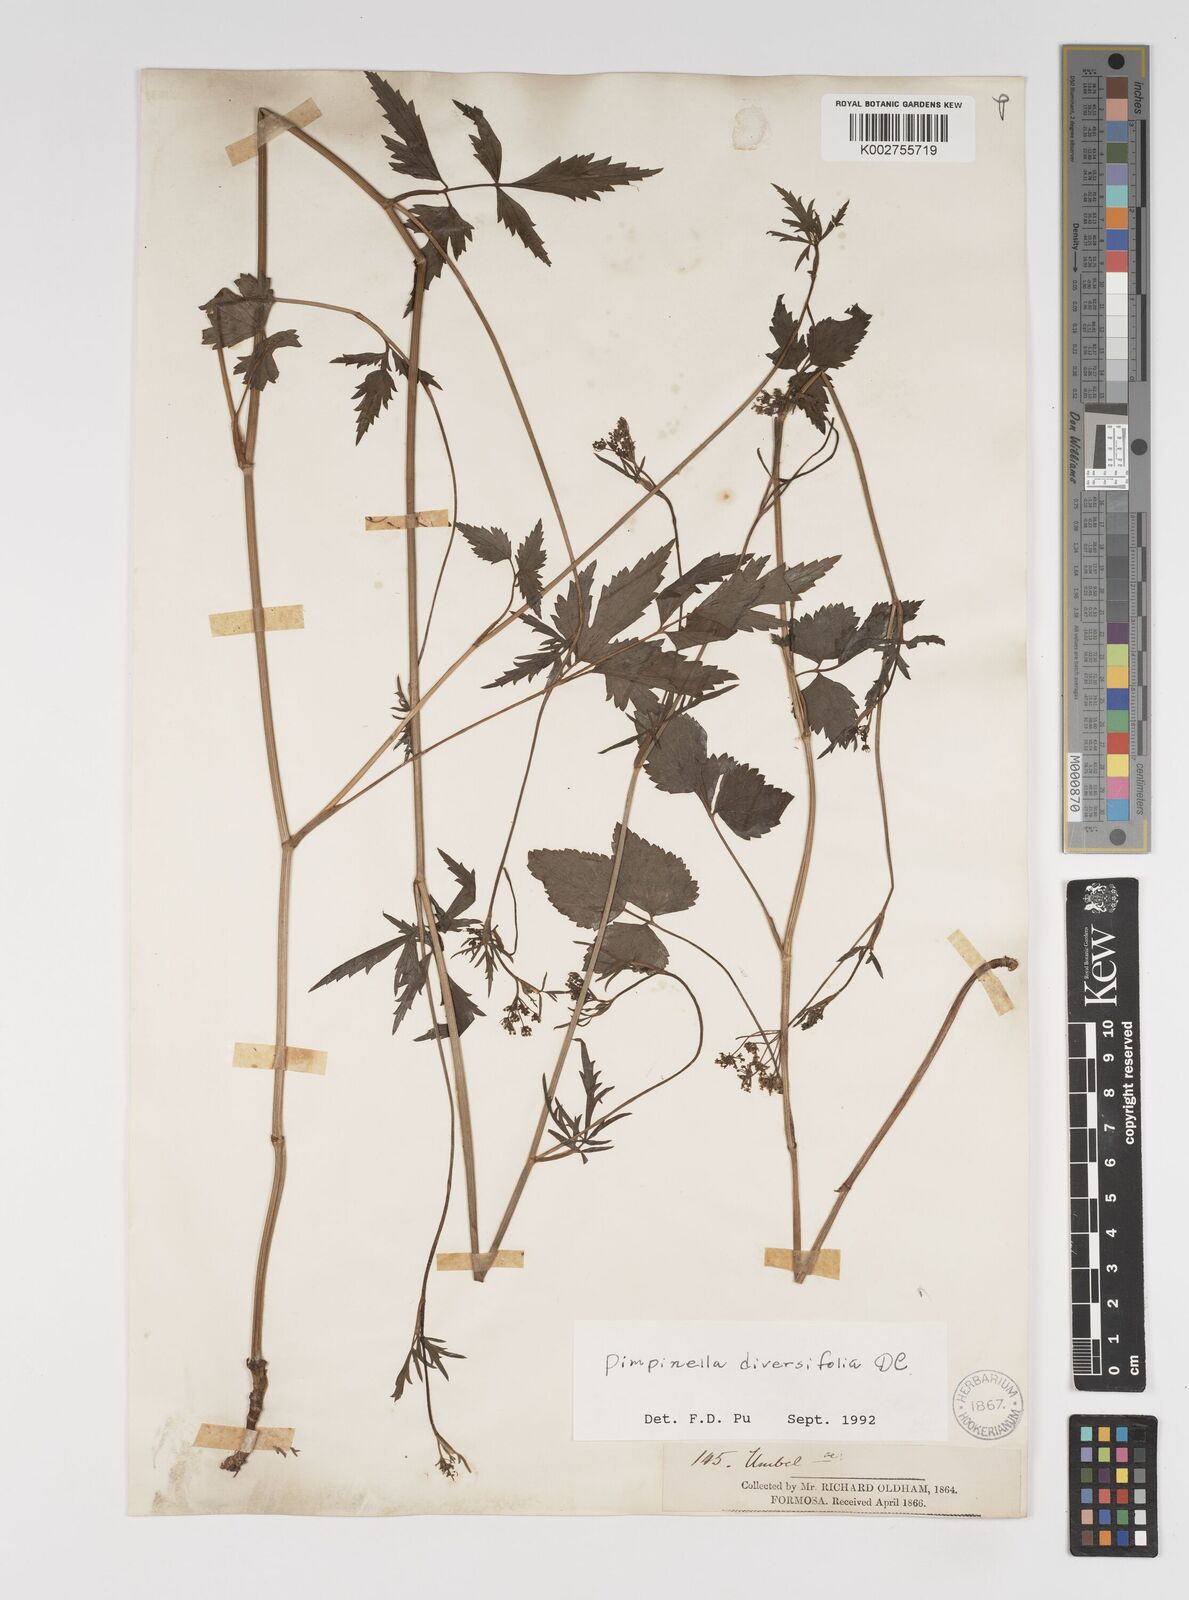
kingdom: Plantae
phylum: Tracheophyta
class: Magnoliopsida
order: Apiales
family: Apiaceae
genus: Pimpinella
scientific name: Pimpinella diversifolia
